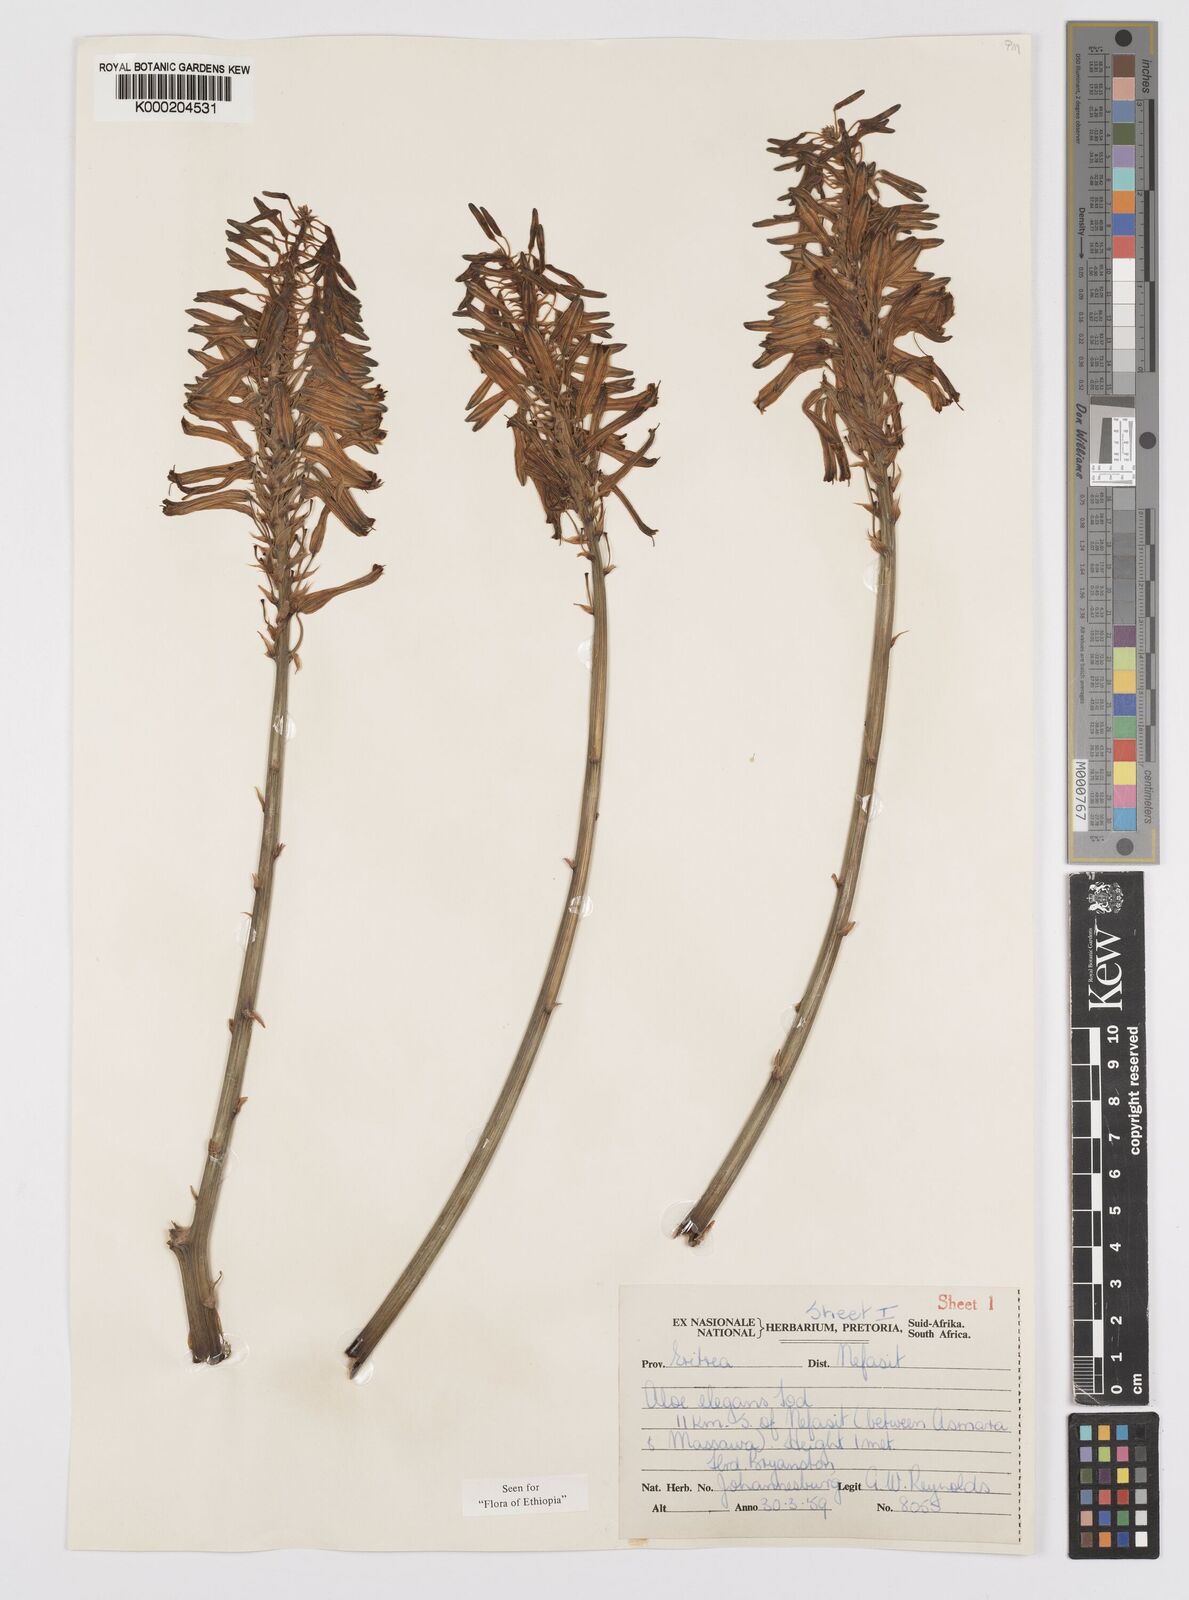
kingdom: Plantae
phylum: Tracheophyta
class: Liliopsida
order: Asparagales
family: Asphodelaceae
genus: Aloe
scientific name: Aloe elegans
